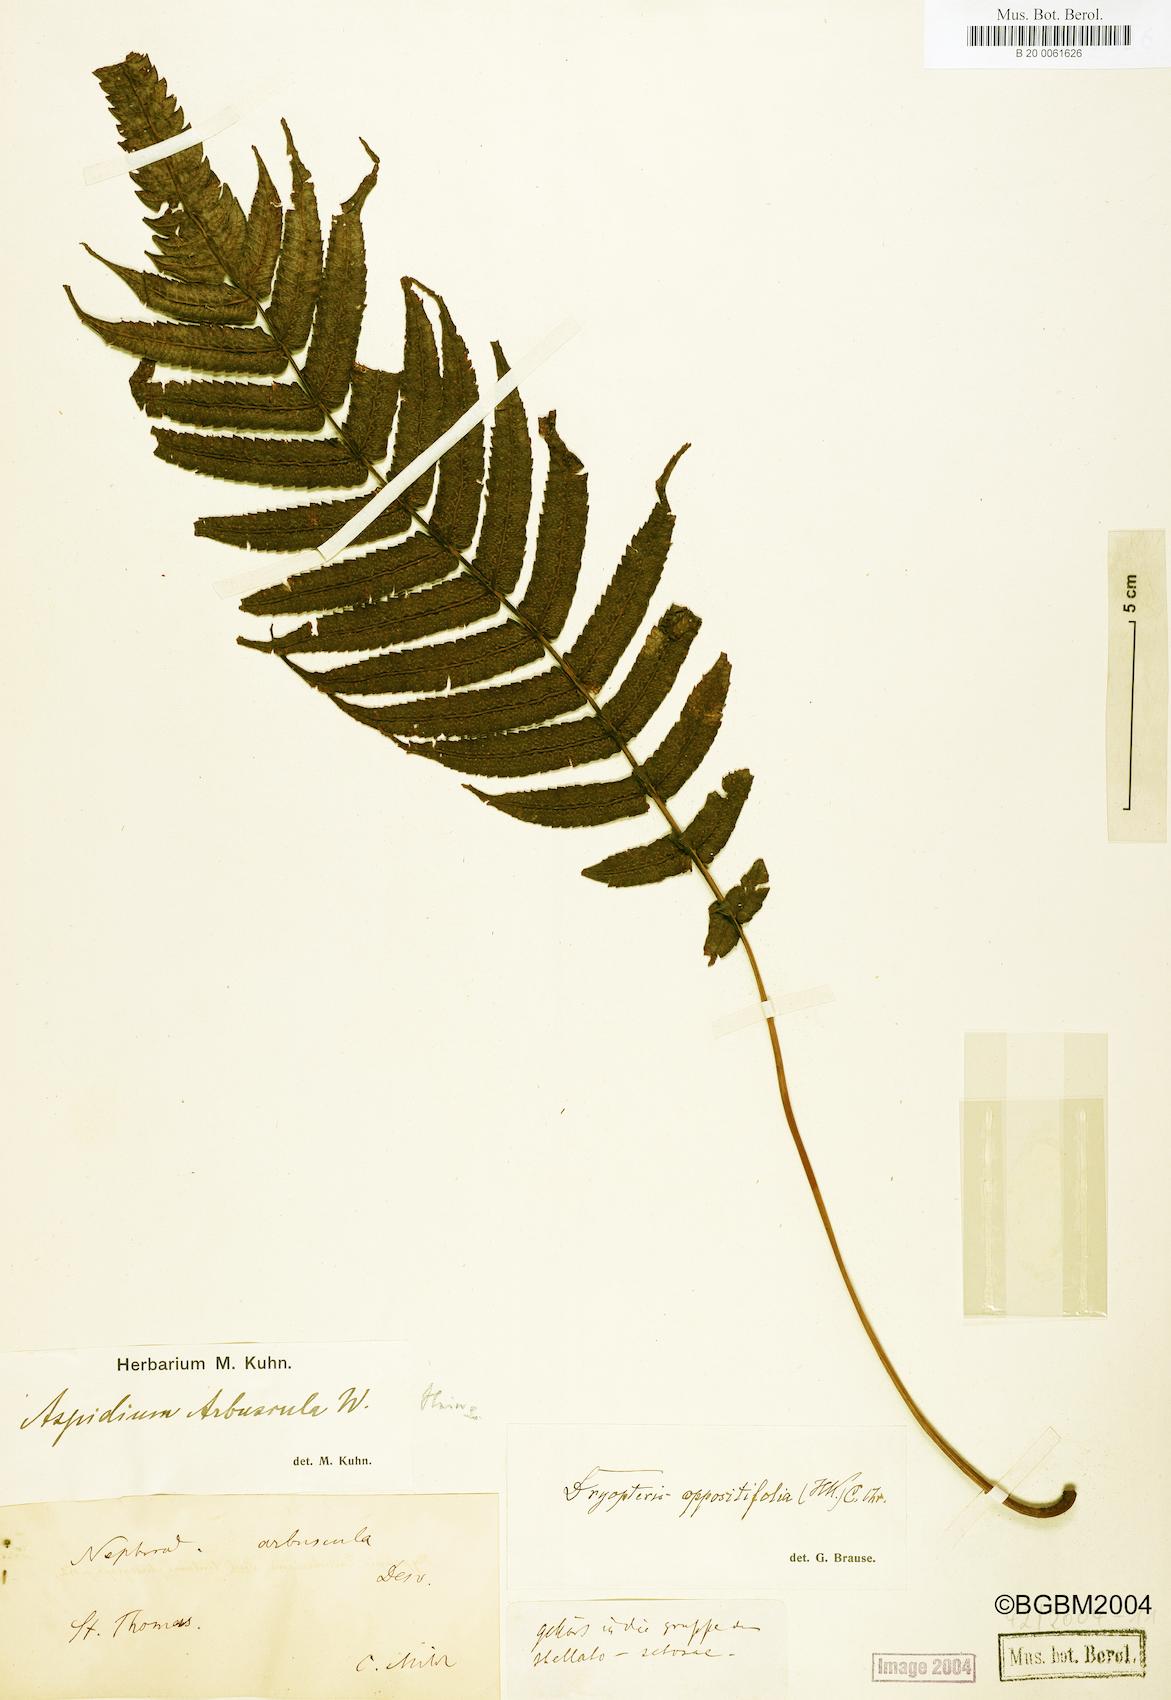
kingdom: Plantae
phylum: Tracheophyta
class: Polypodiopsida
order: Polypodiales
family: Thelypteridaceae
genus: Menisorus
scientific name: Menisorus oppositifolius
